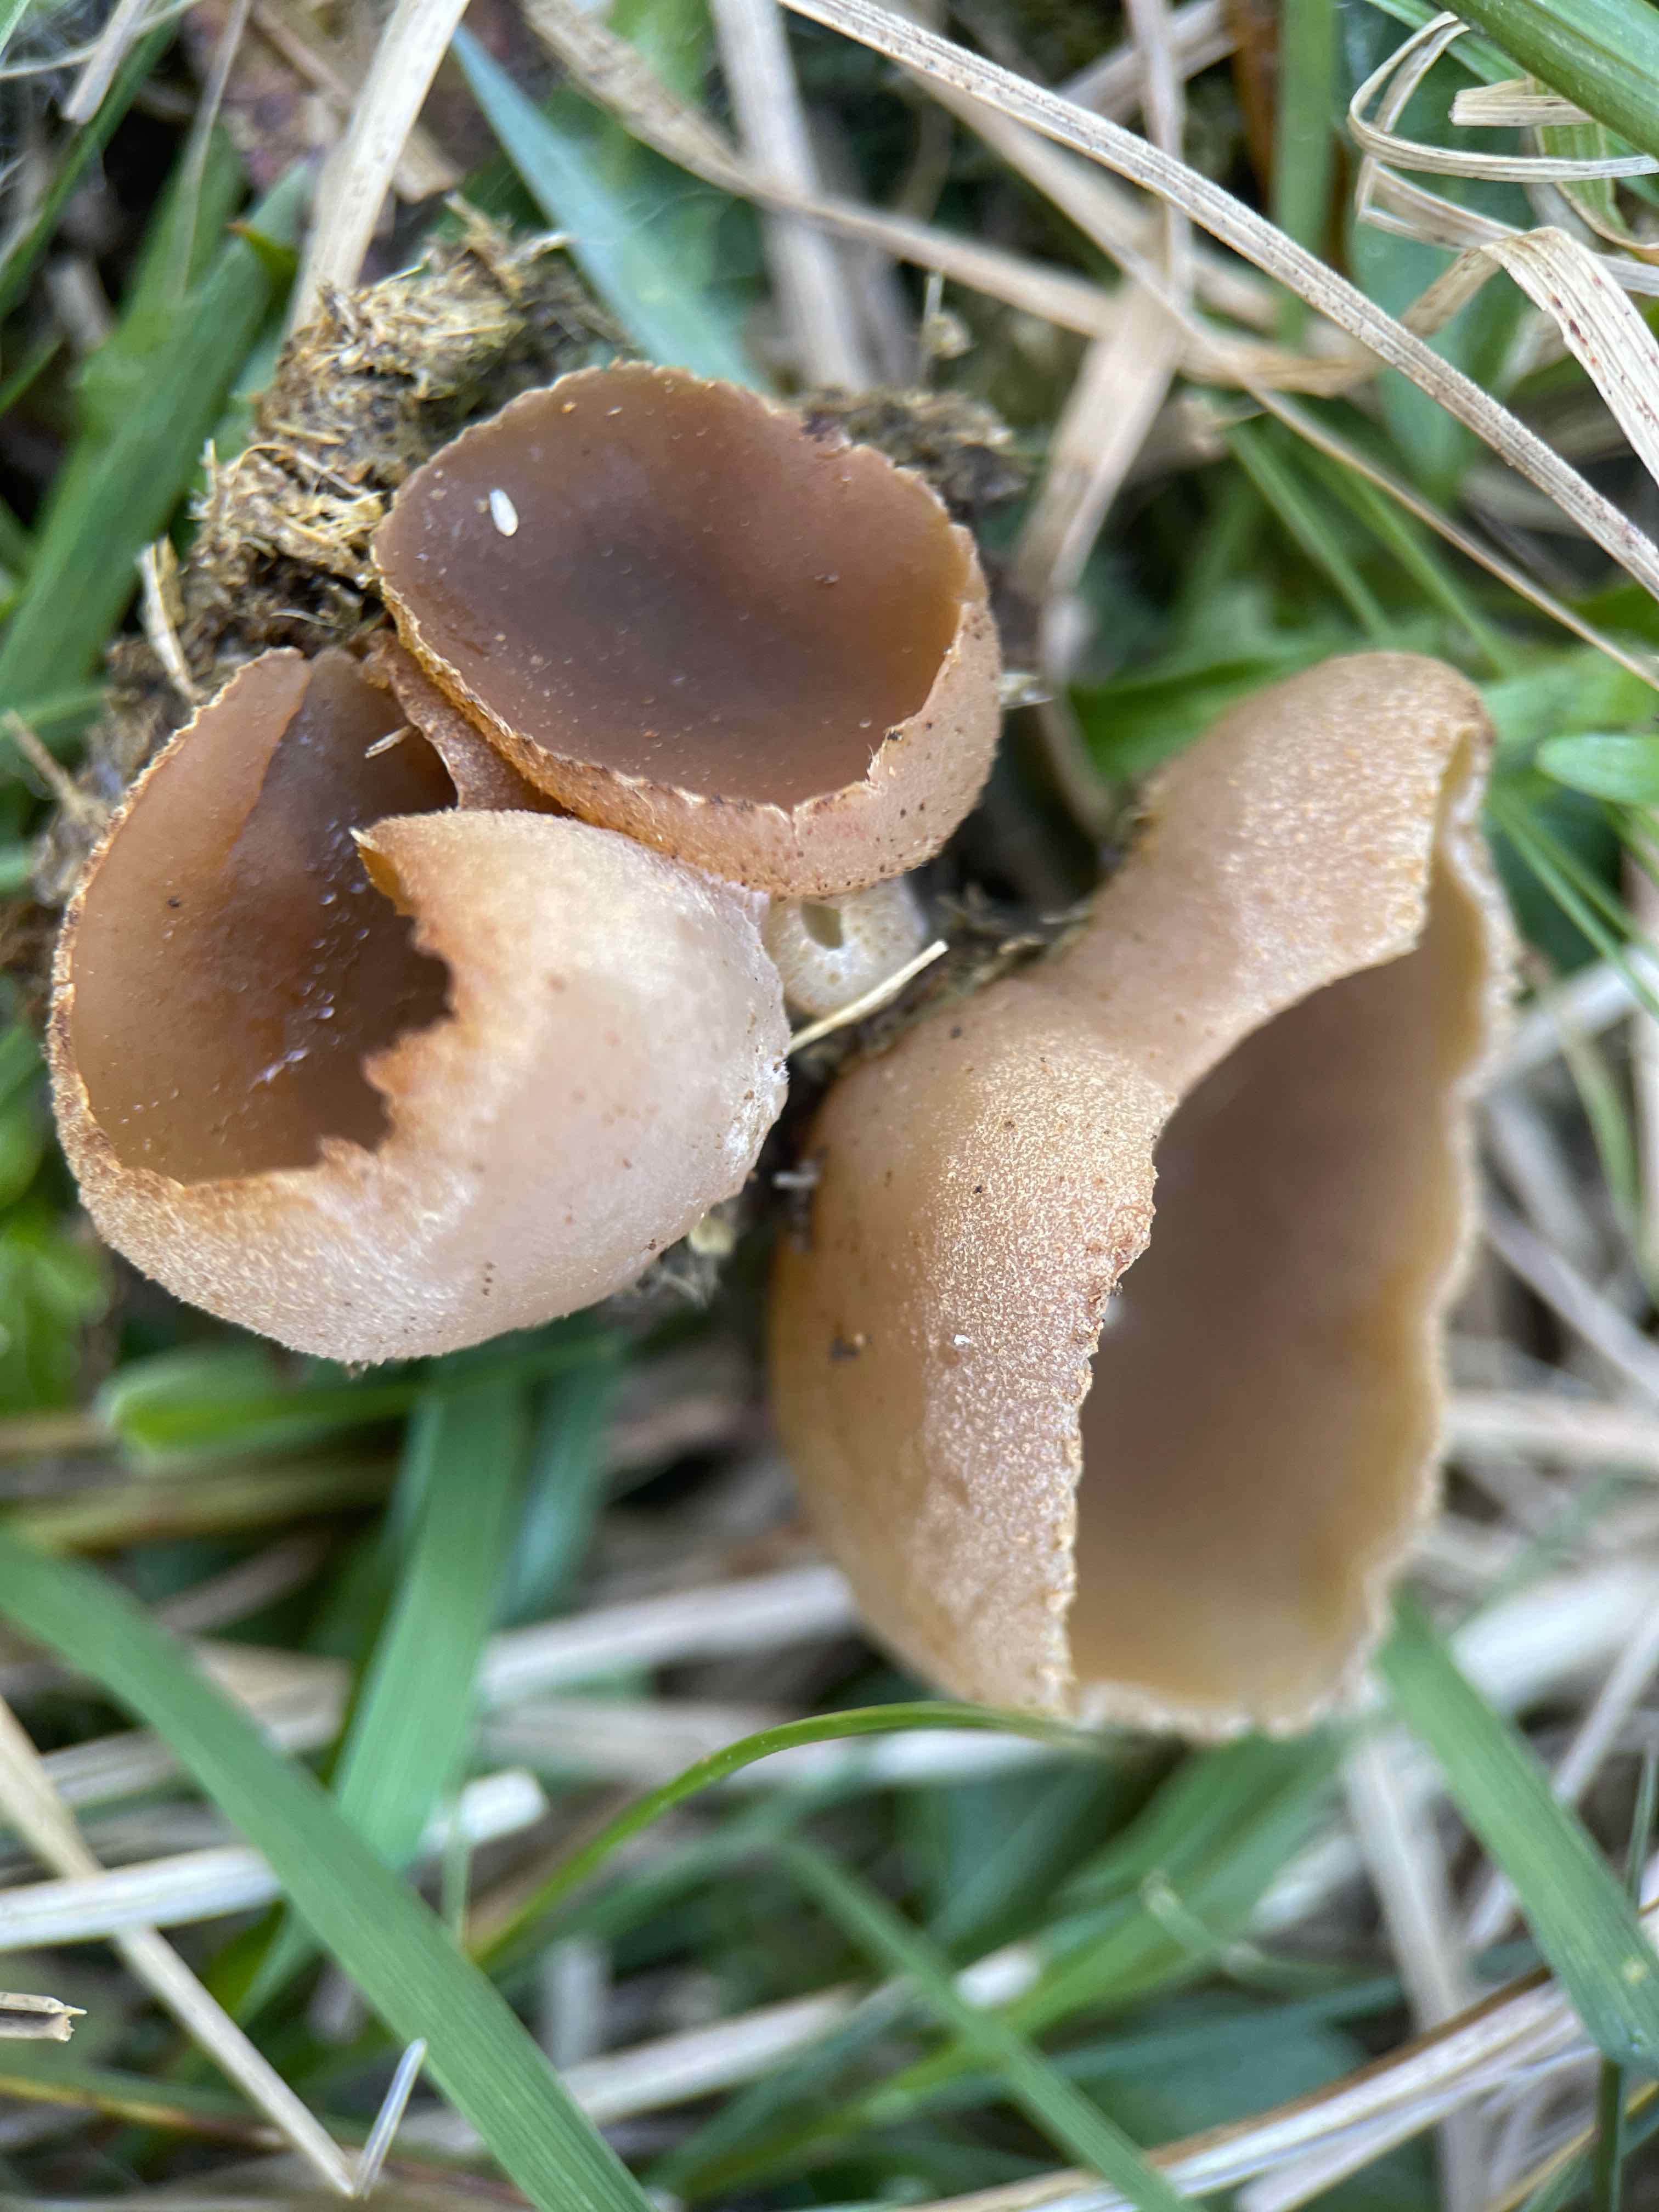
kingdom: Fungi
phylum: Ascomycota
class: Pezizomycetes
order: Pezizales
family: Pezizaceae
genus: Peziza
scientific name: Peziza fimeti
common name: møg-bægersvamp
